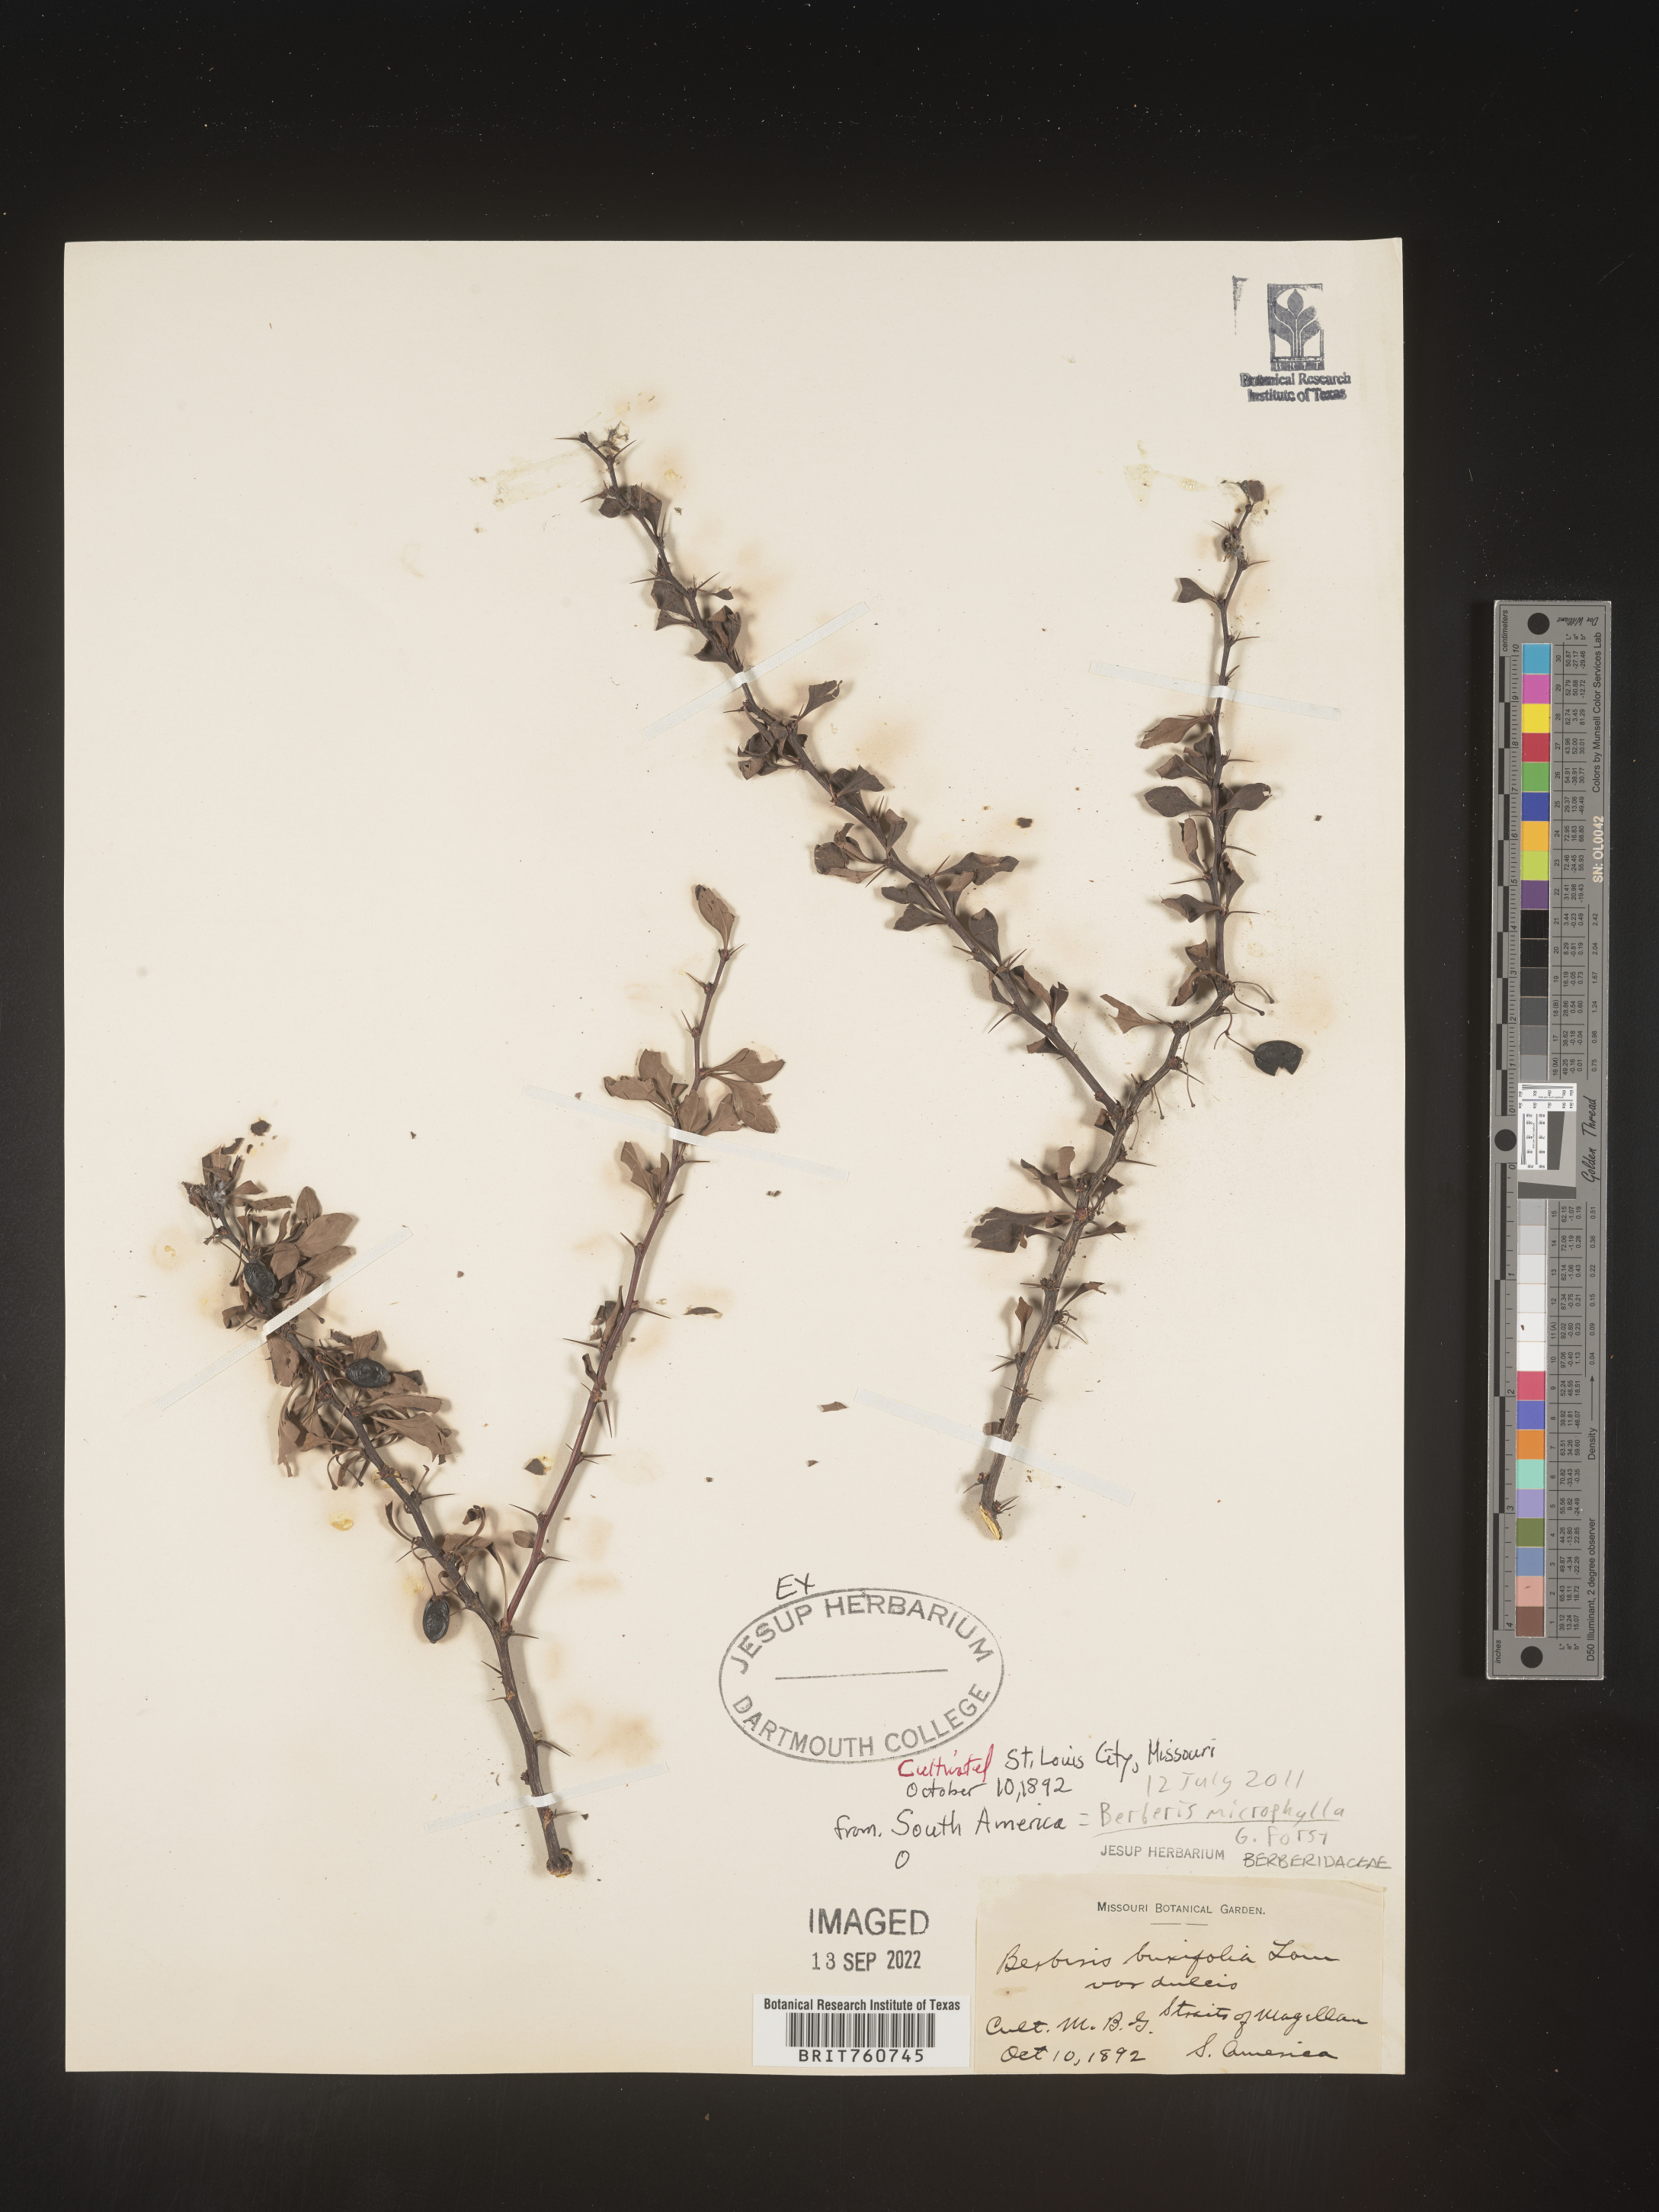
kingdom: Plantae
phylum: Tracheophyta
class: Magnoliopsida
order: Ranunculales
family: Berberidaceae
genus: Berberis
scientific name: Berberis
